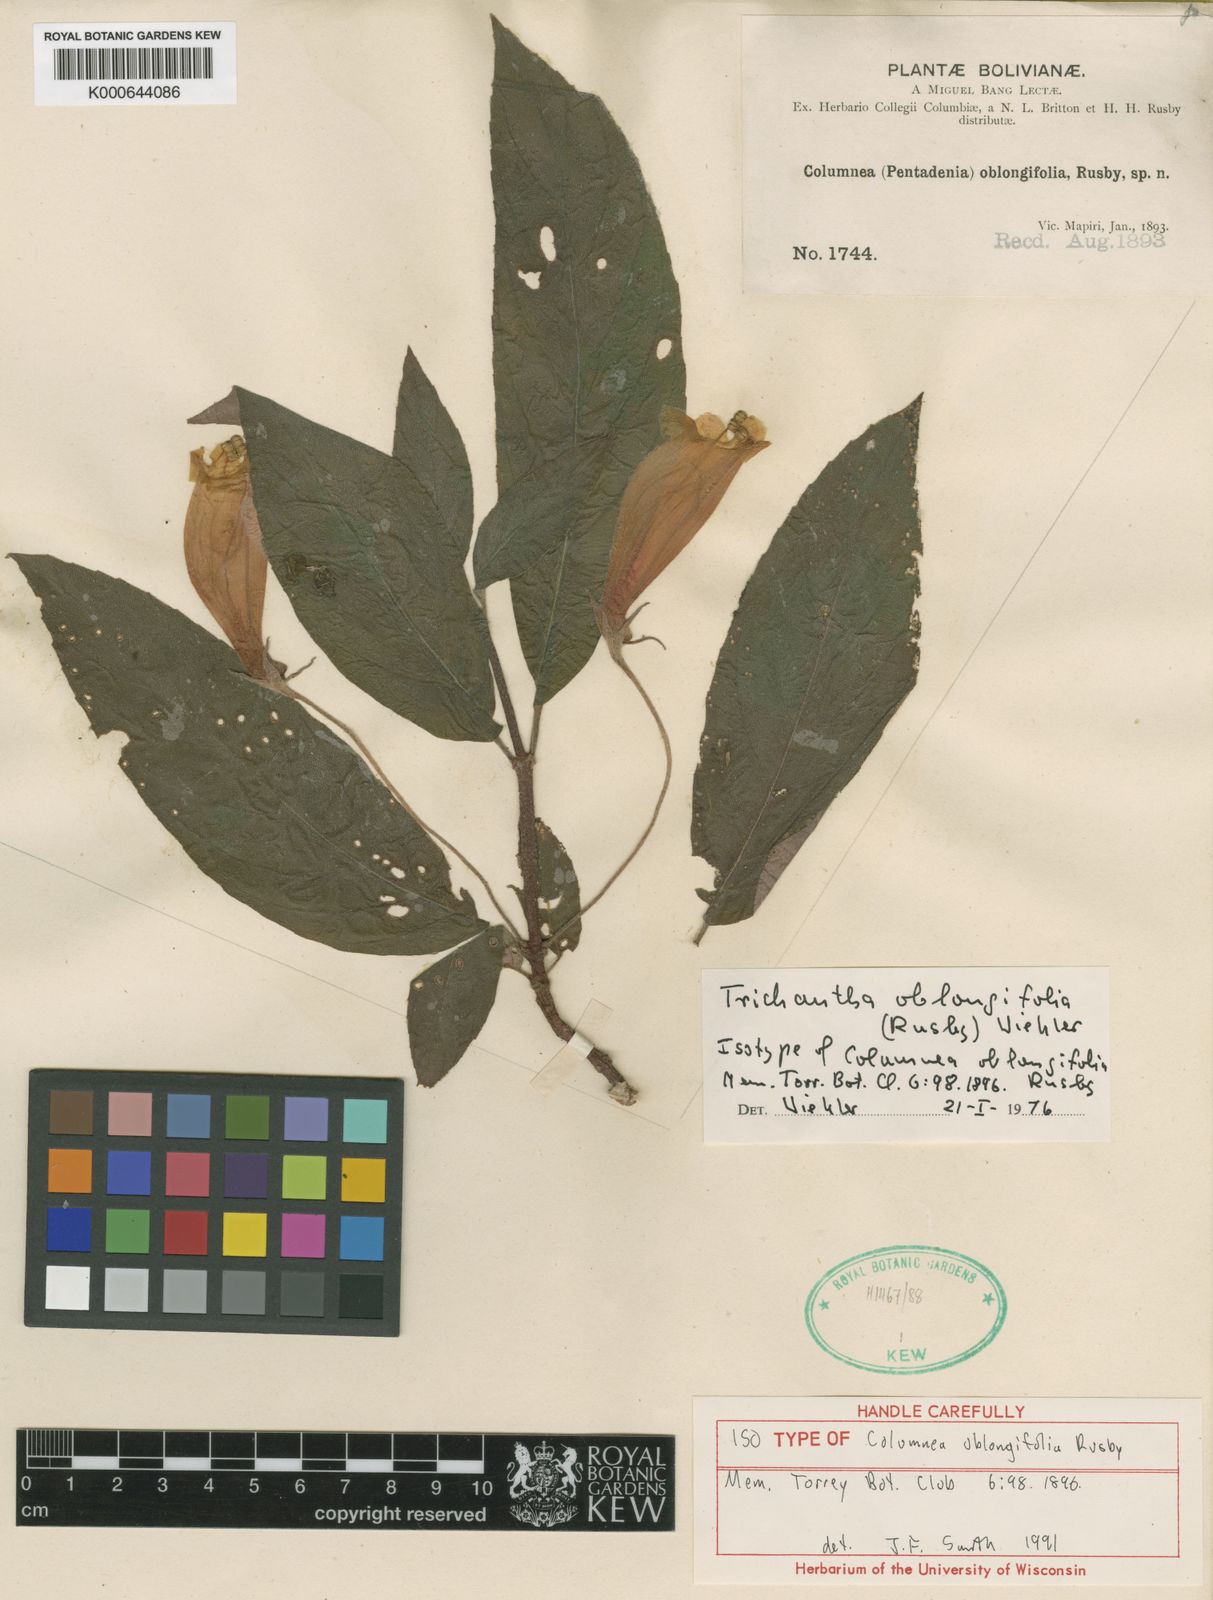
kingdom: Plantae
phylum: Tracheophyta
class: Magnoliopsida
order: Lamiales
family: Gesneriaceae
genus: Columnea
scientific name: Columnea oblongifolia
